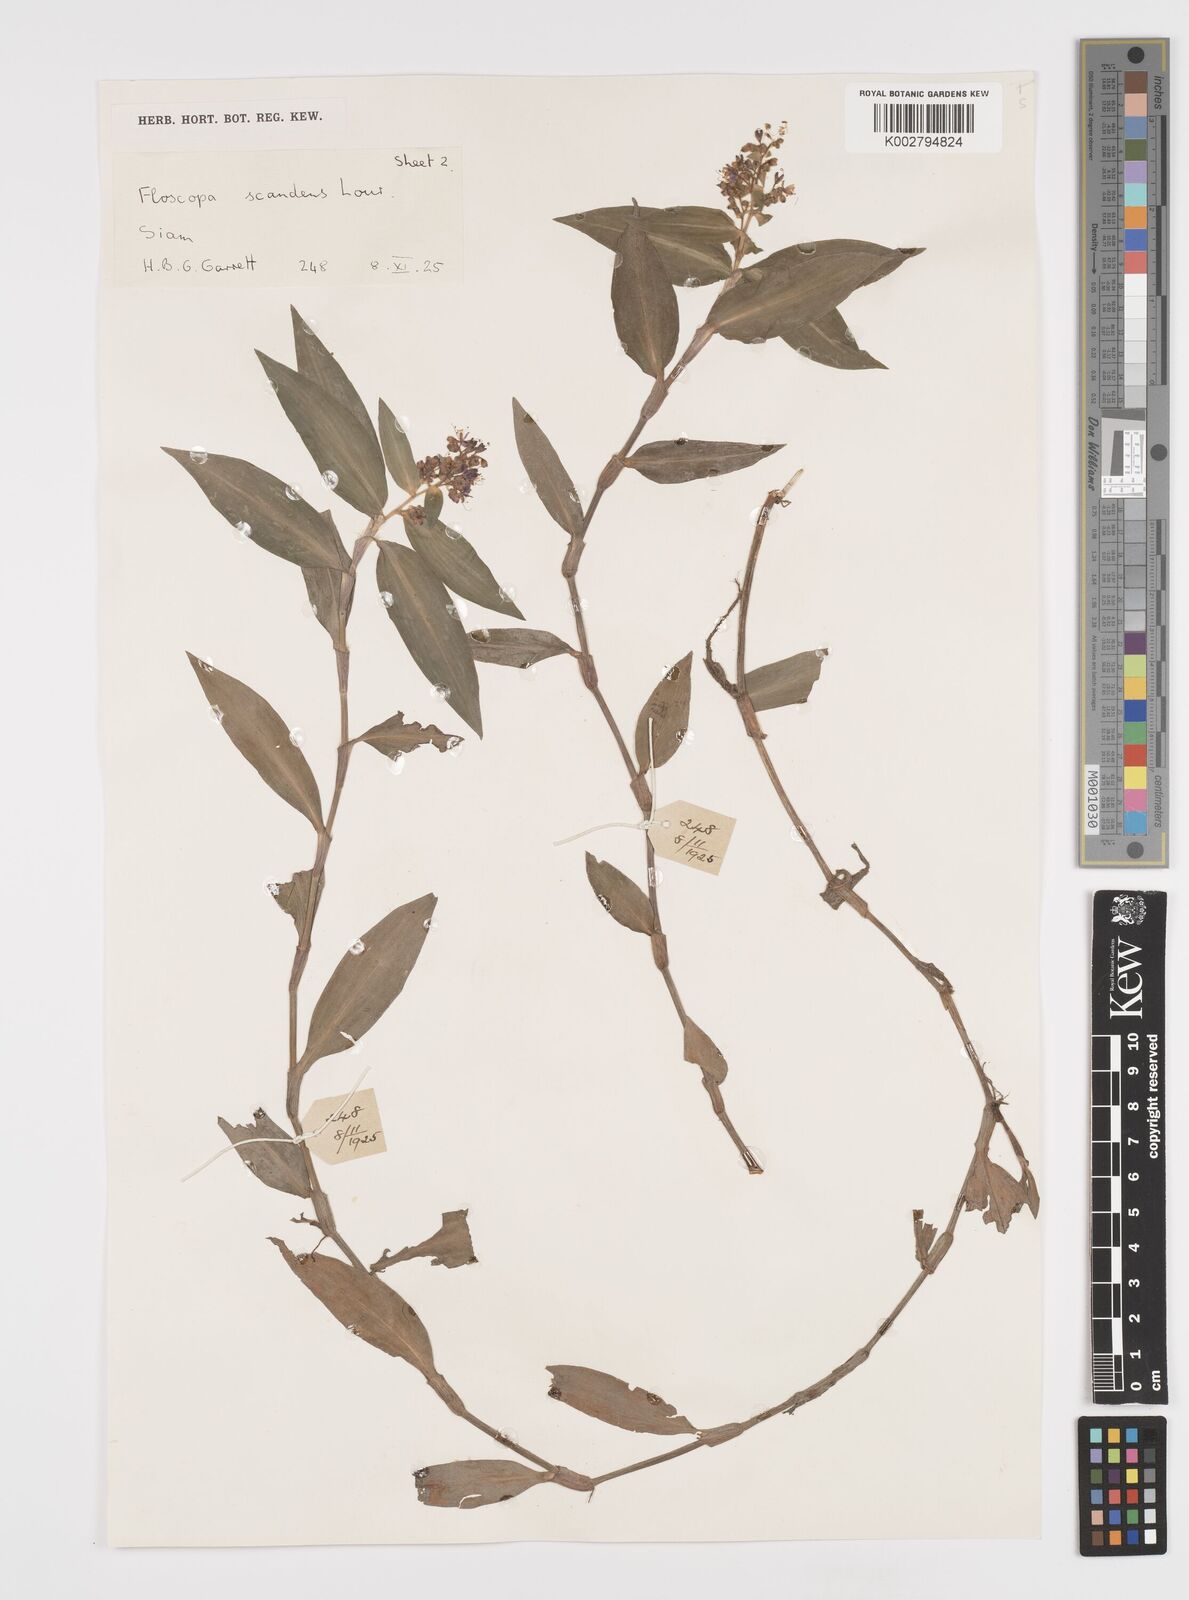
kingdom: Plantae
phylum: Tracheophyta
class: Liliopsida
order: Commelinales
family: Commelinaceae
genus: Floscopa
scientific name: Floscopa scandens
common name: Climbing flower cup
